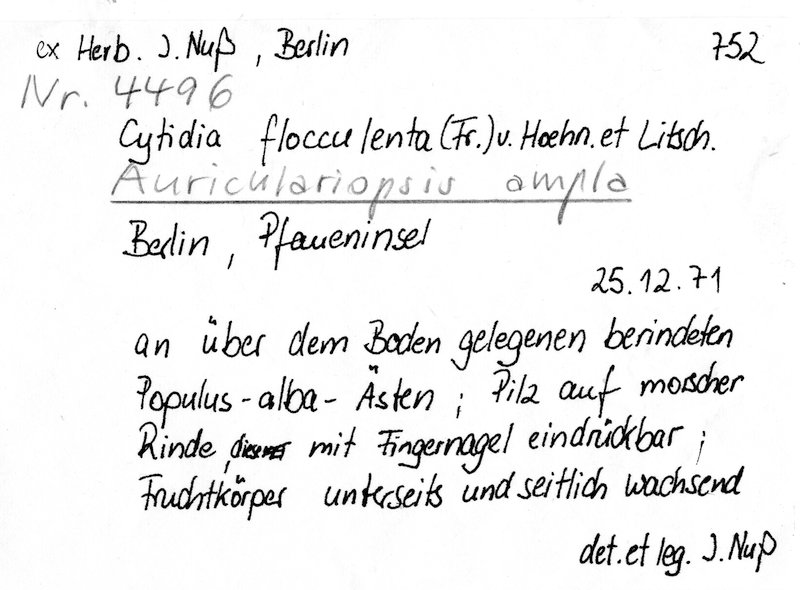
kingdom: Plantae
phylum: Tracheophyta
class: Magnoliopsida
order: Malpighiales
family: Salicaceae
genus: Populus
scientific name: Populus alba
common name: White poplar
